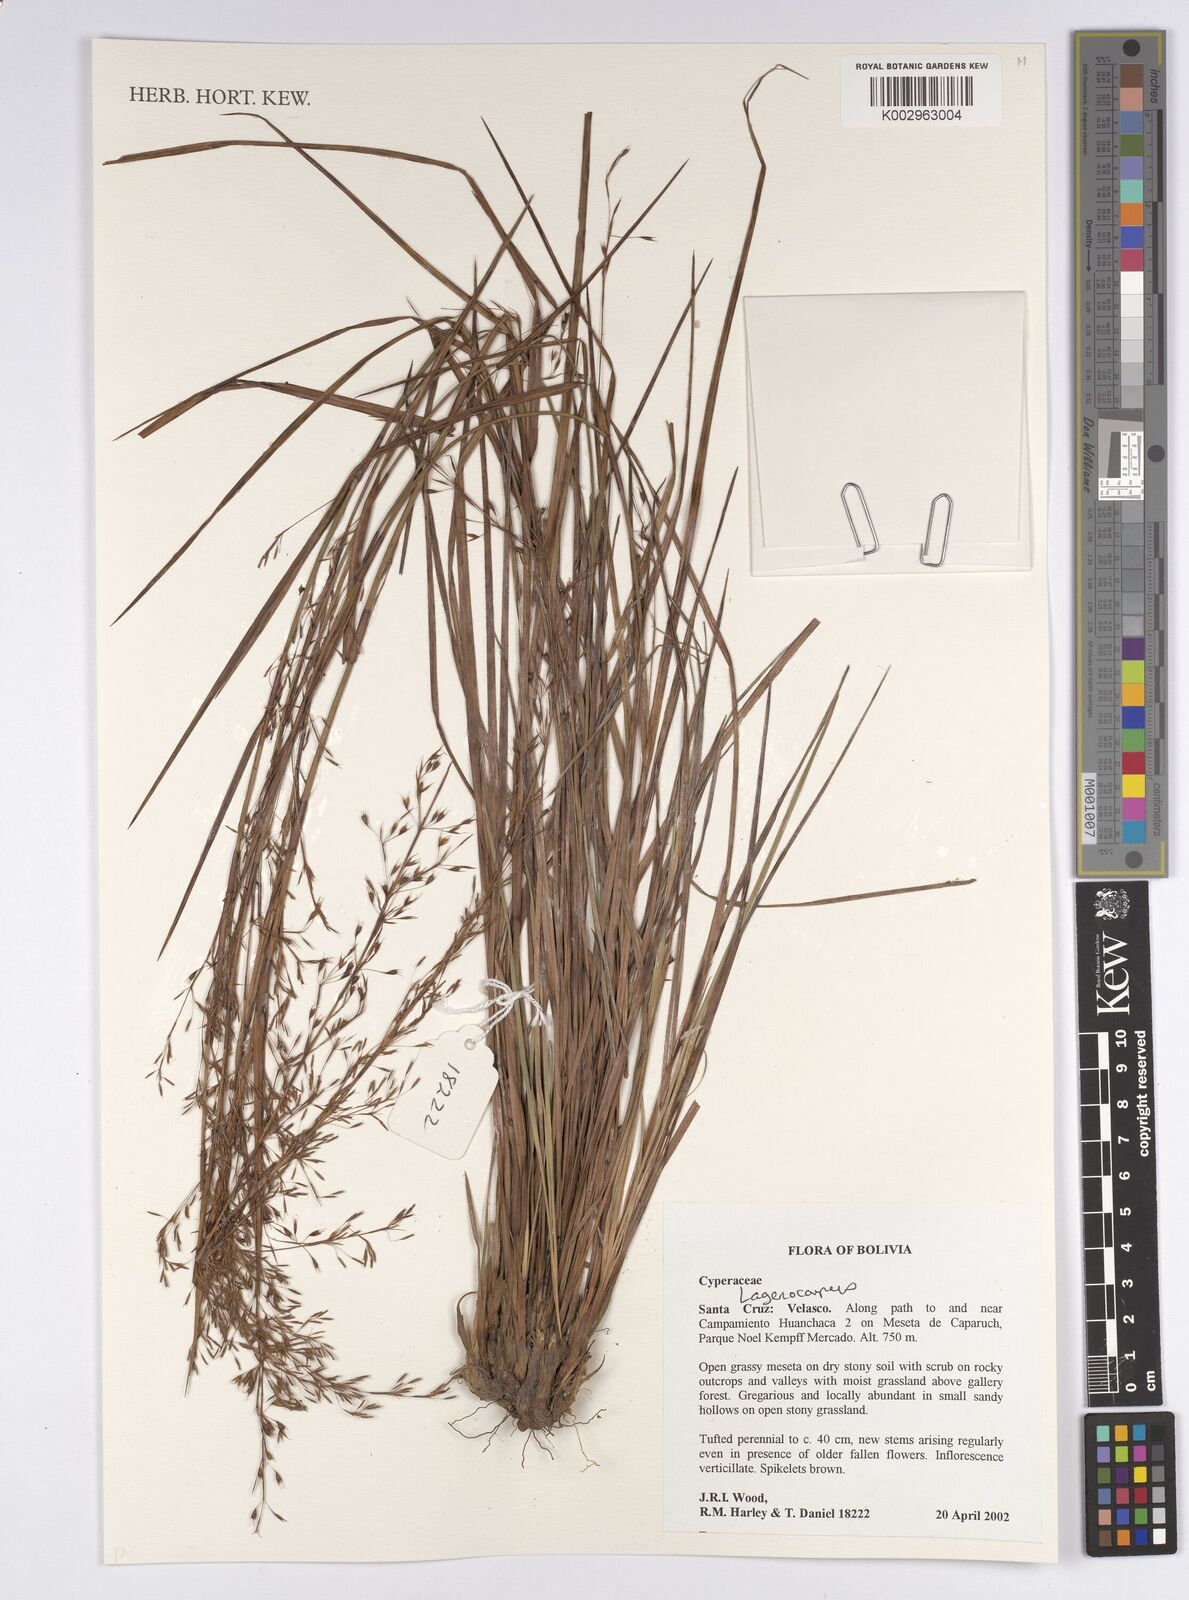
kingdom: Plantae
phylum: Tracheophyta
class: Liliopsida
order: Poales
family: Cyperaceae
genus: Lagenocarpus
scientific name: Lagenocarpus
